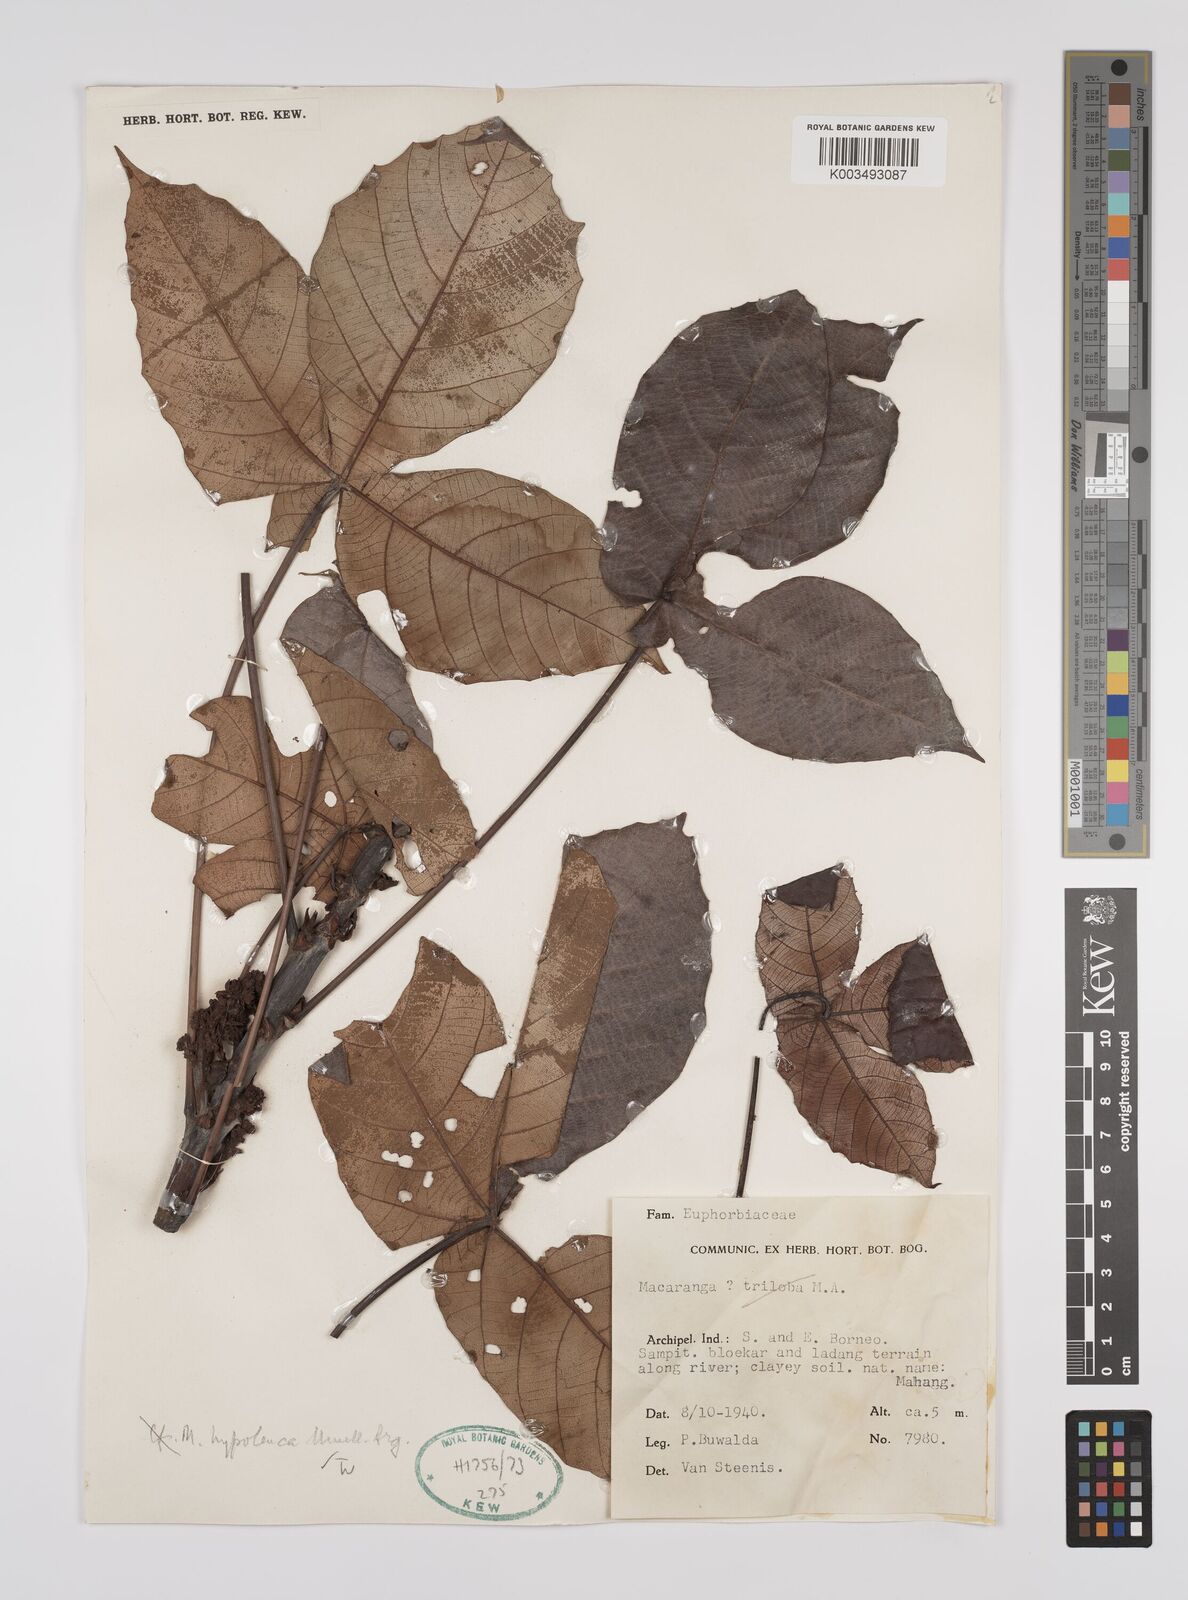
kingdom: Plantae
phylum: Tracheophyta
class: Magnoliopsida
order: Malpighiales
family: Euphorbiaceae
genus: Macaranga
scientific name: Macaranga hypoleuca
